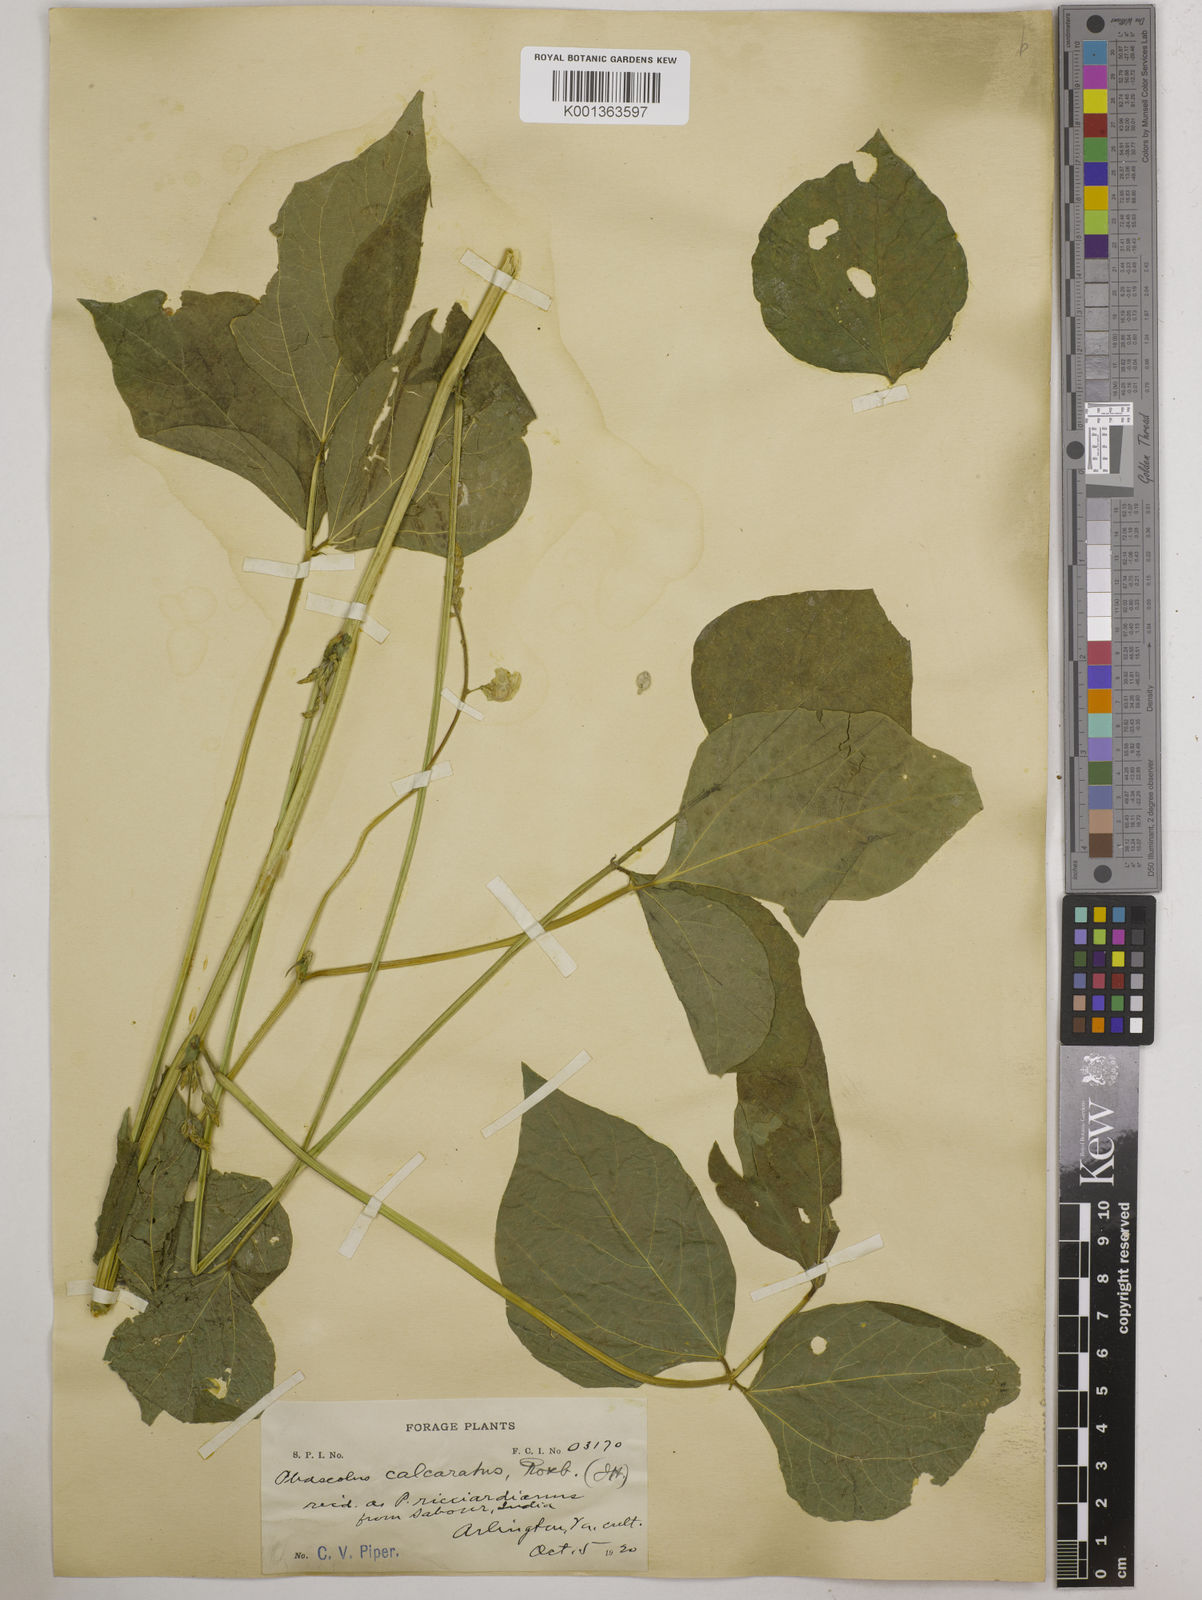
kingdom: Plantae
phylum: Tracheophyta
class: Magnoliopsida
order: Fabales
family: Fabaceae
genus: Vigna
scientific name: Vigna umbellata
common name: Oriental-bean
